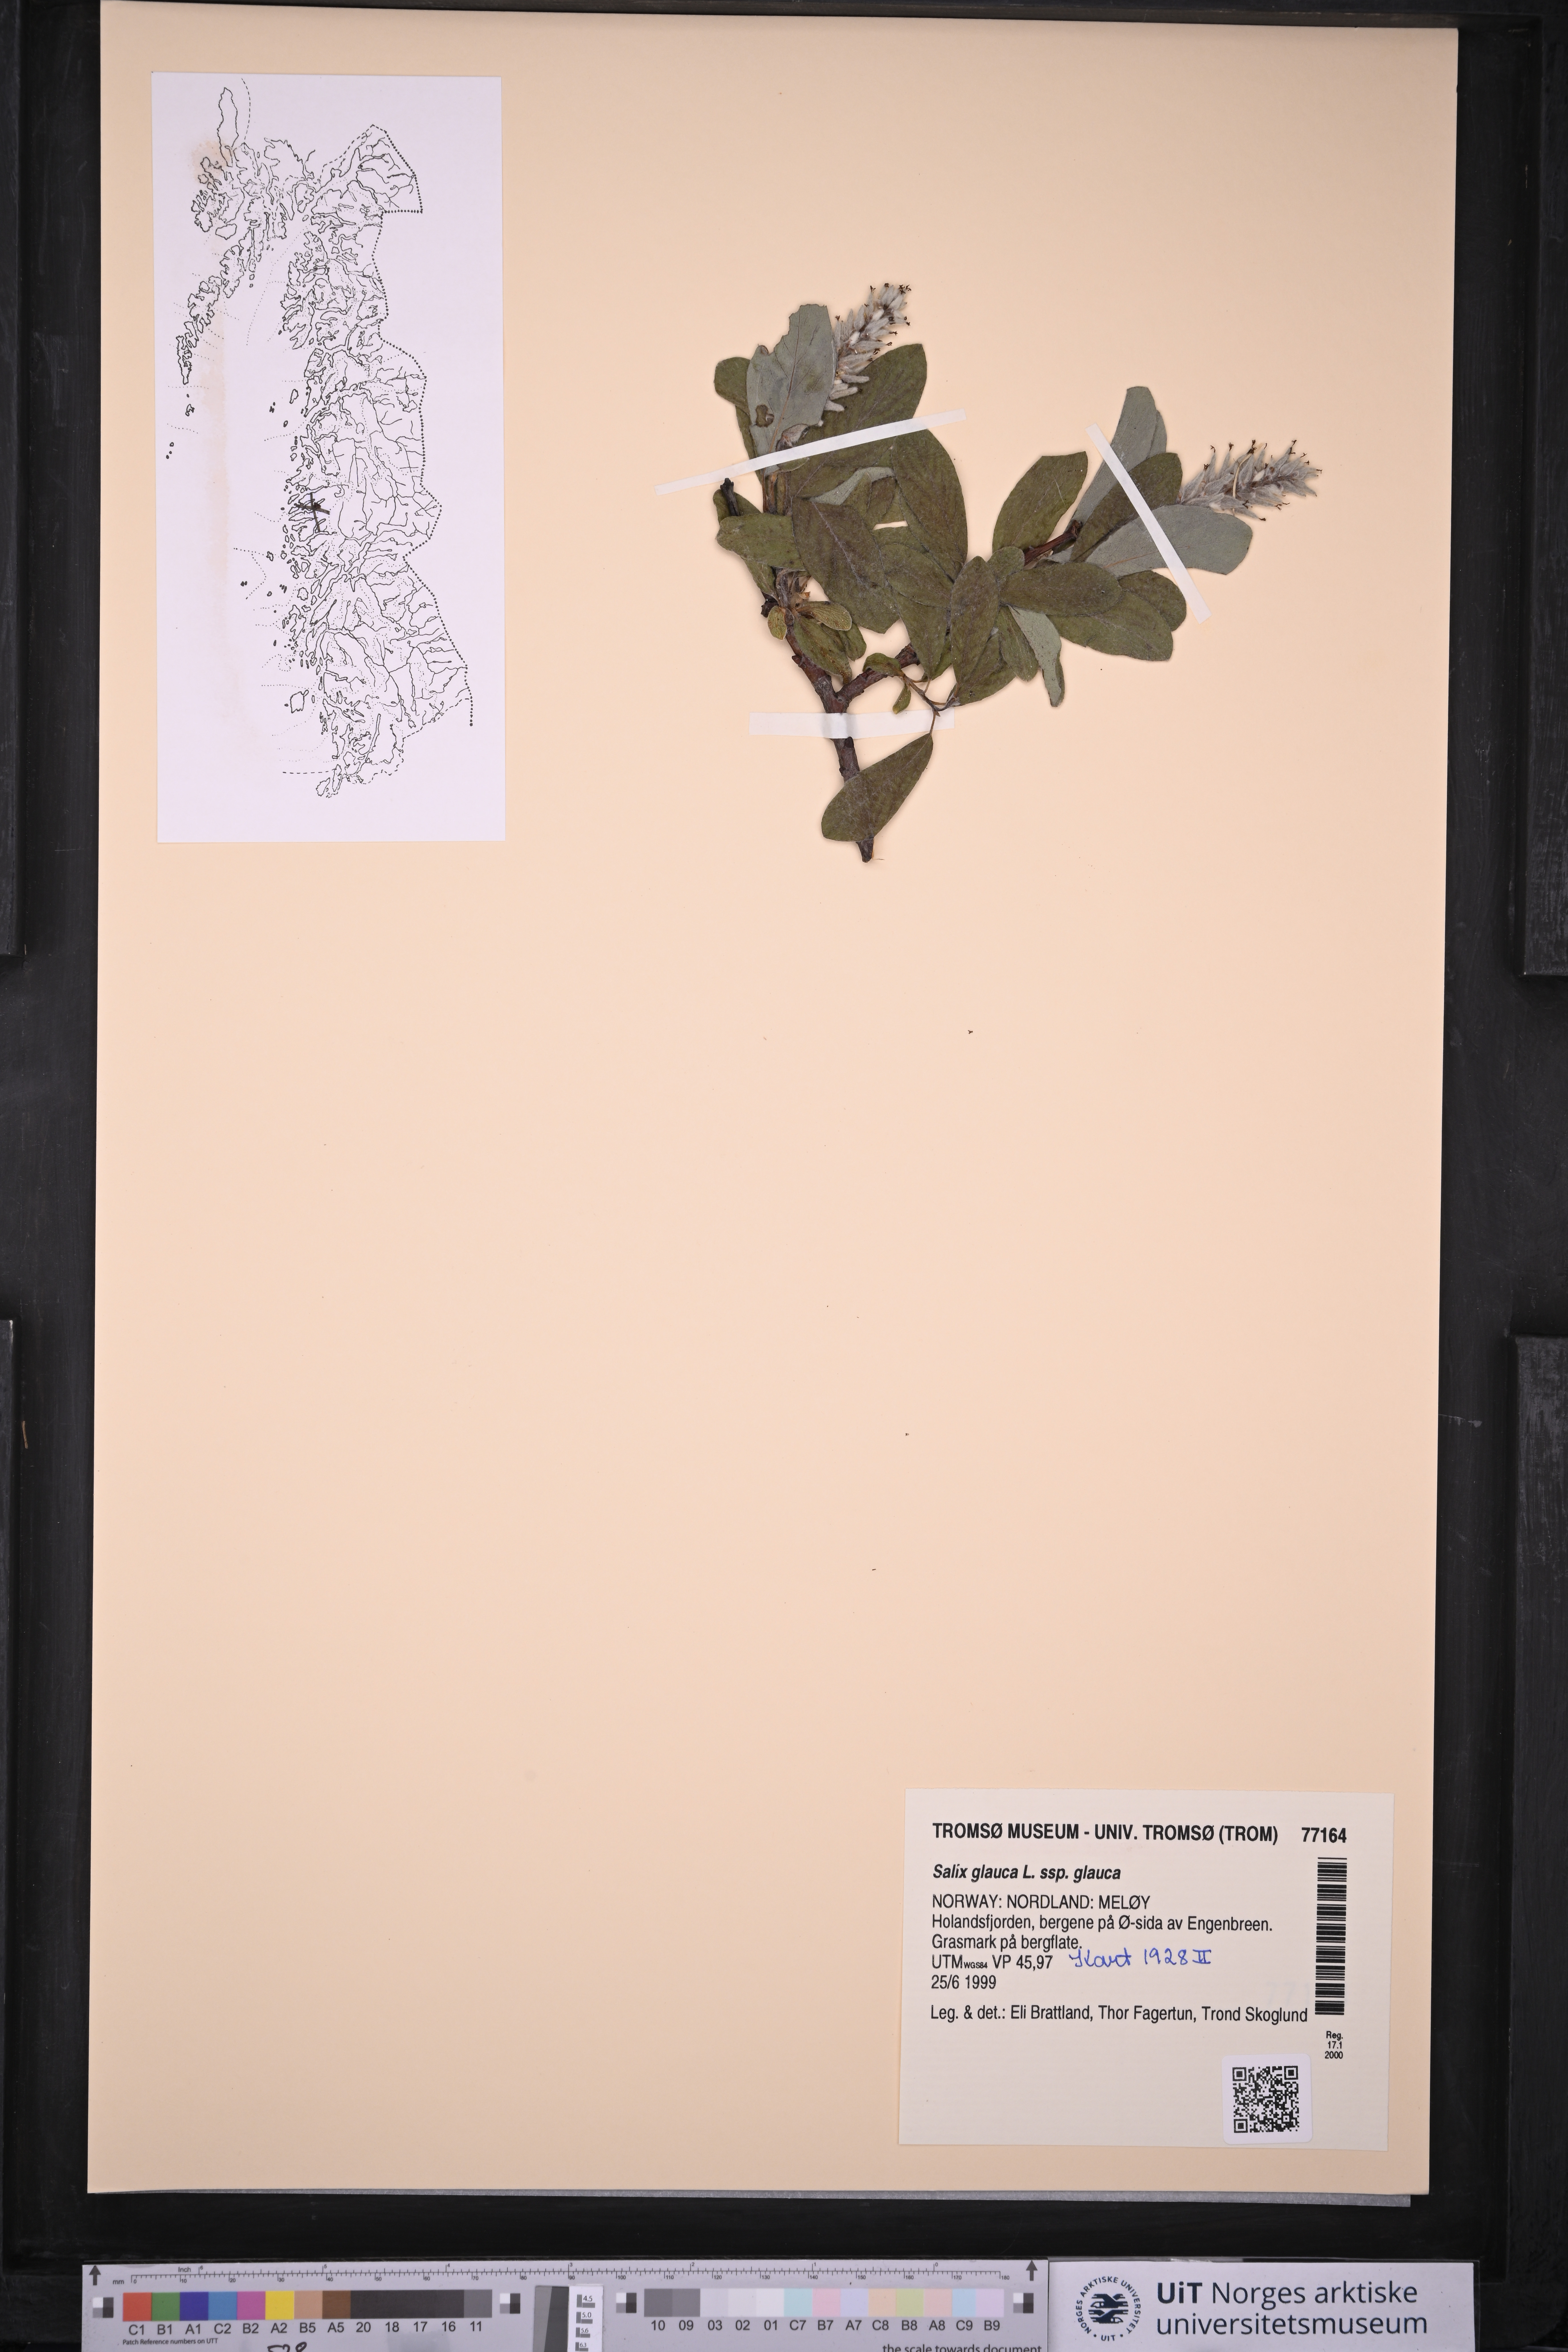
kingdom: Plantae
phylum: Tracheophyta
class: Magnoliopsida
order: Malpighiales
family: Salicaceae
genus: Salix
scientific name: Salix glauca
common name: Glaucous willow
